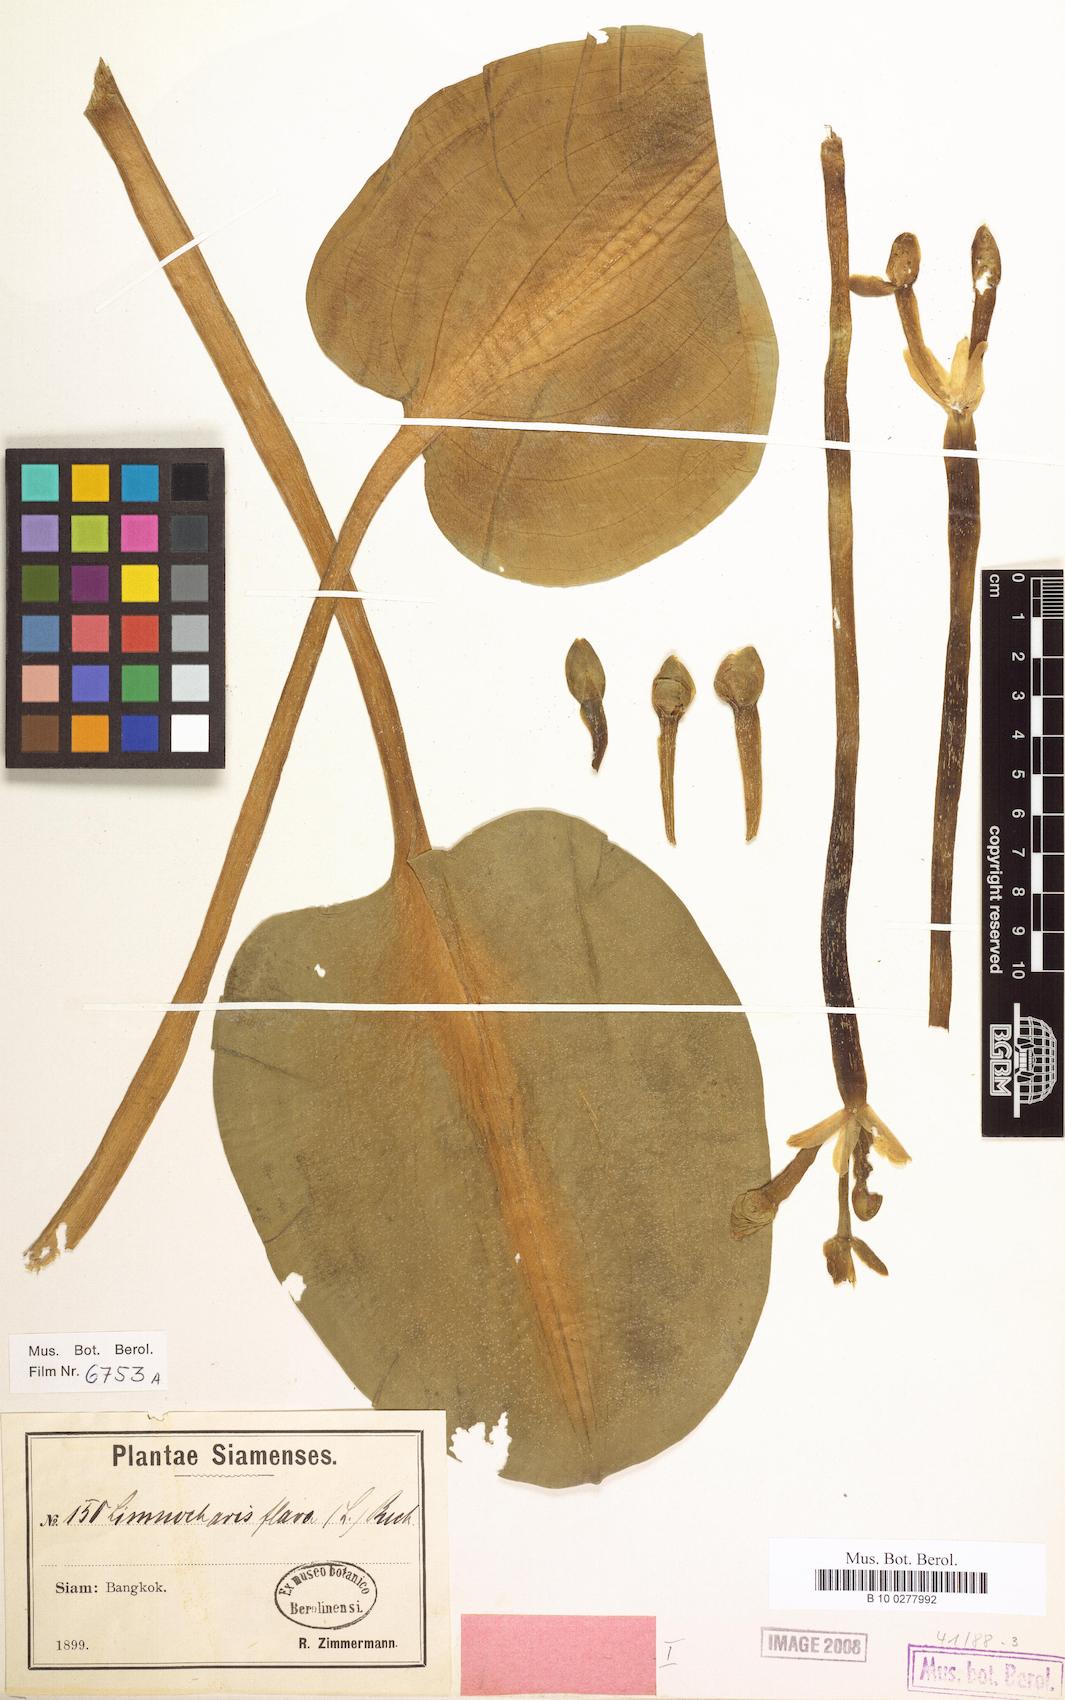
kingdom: Plantae
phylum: Tracheophyta
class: Liliopsida
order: Alismatales
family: Alismataceae
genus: Limnocharis
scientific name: Limnocharis flava
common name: Sawah-flower-rush
